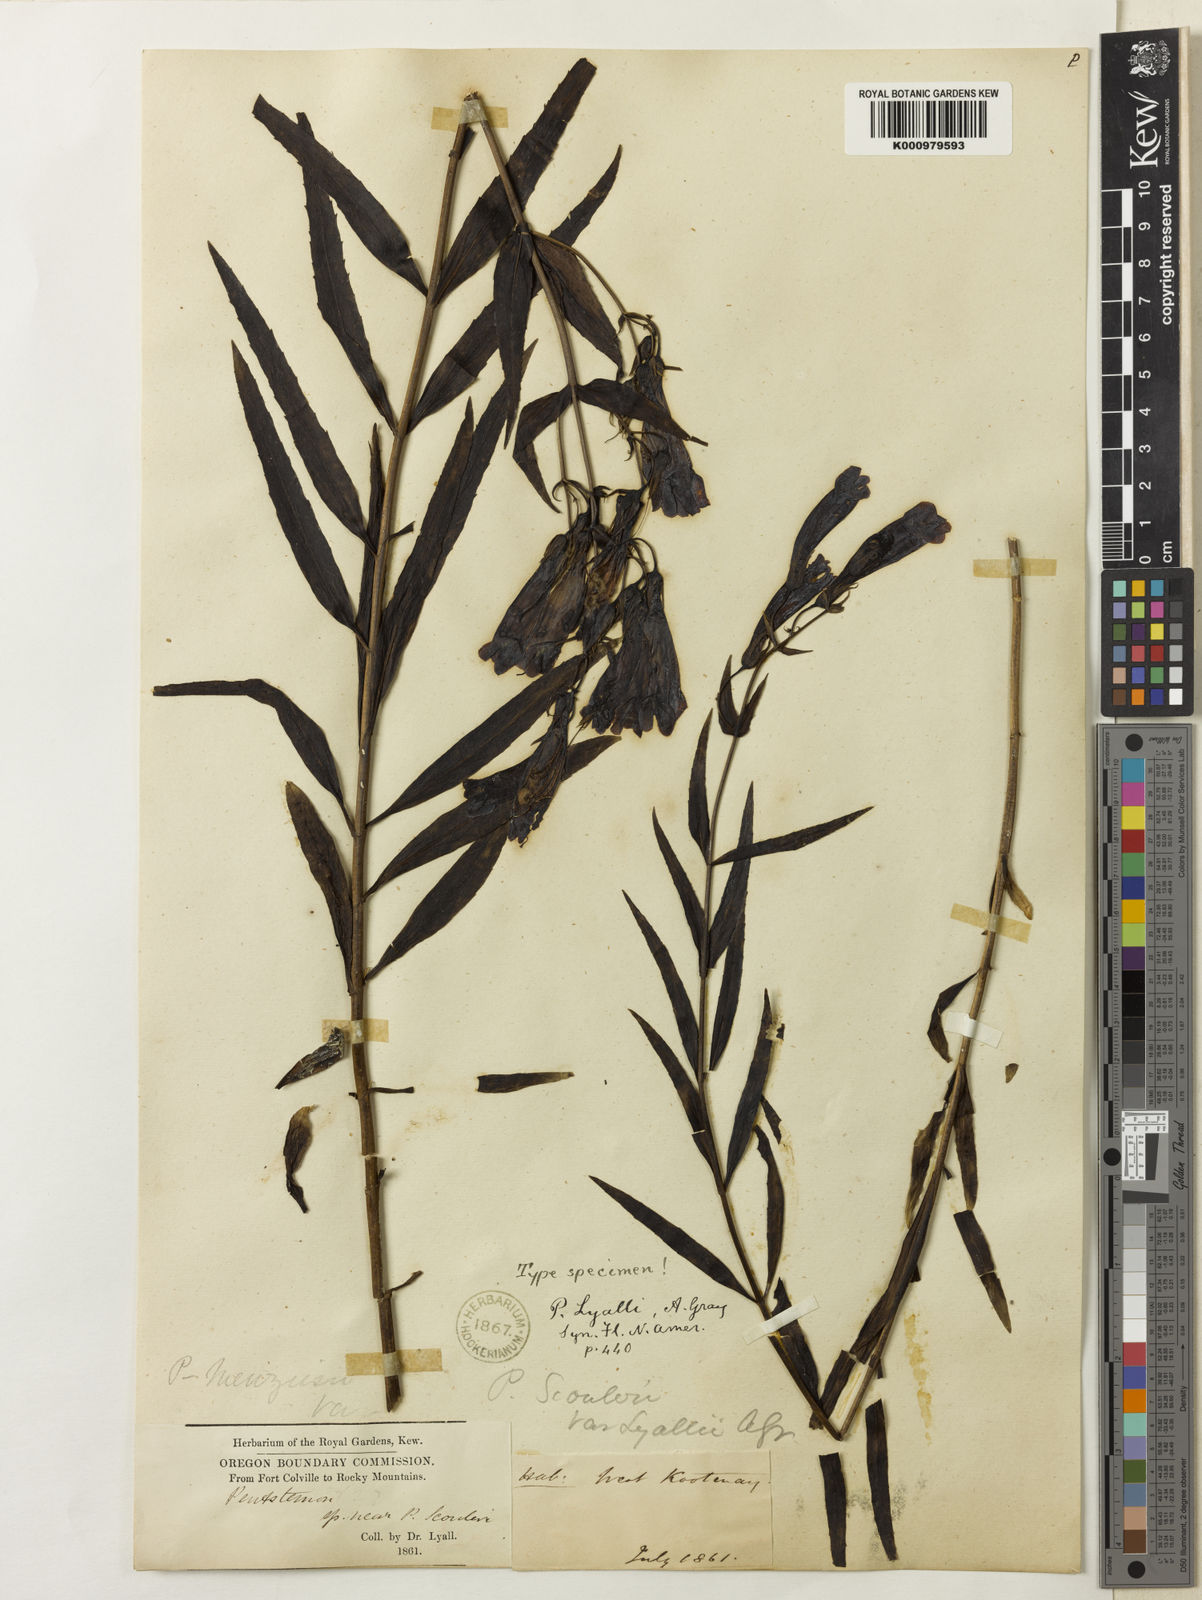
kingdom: Plantae
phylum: Tracheophyta
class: Magnoliopsida
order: Lamiales
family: Plantaginaceae
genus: Penstemon
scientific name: Penstemon
